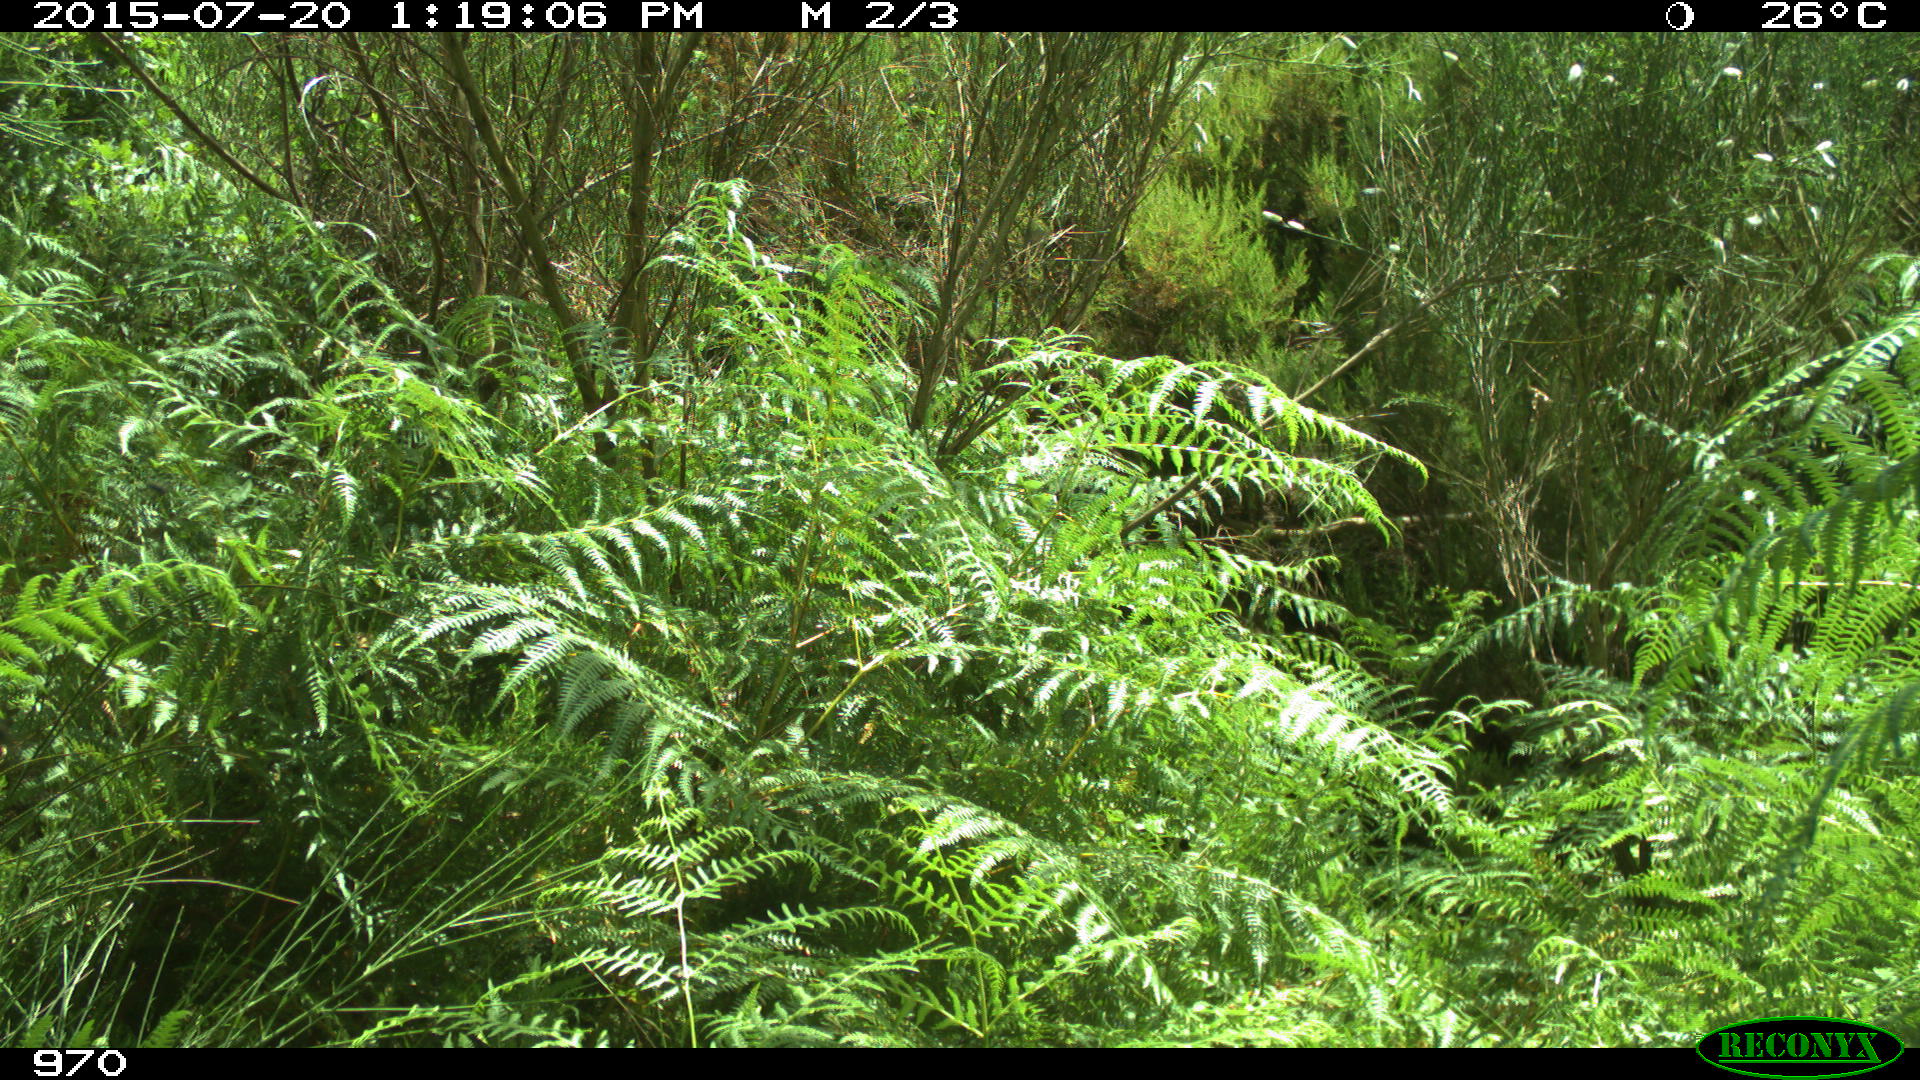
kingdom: Animalia
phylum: Chordata
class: Mammalia
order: Artiodactyla
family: Bovidae
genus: Bos
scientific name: Bos taurus
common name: Domesticated cattle
